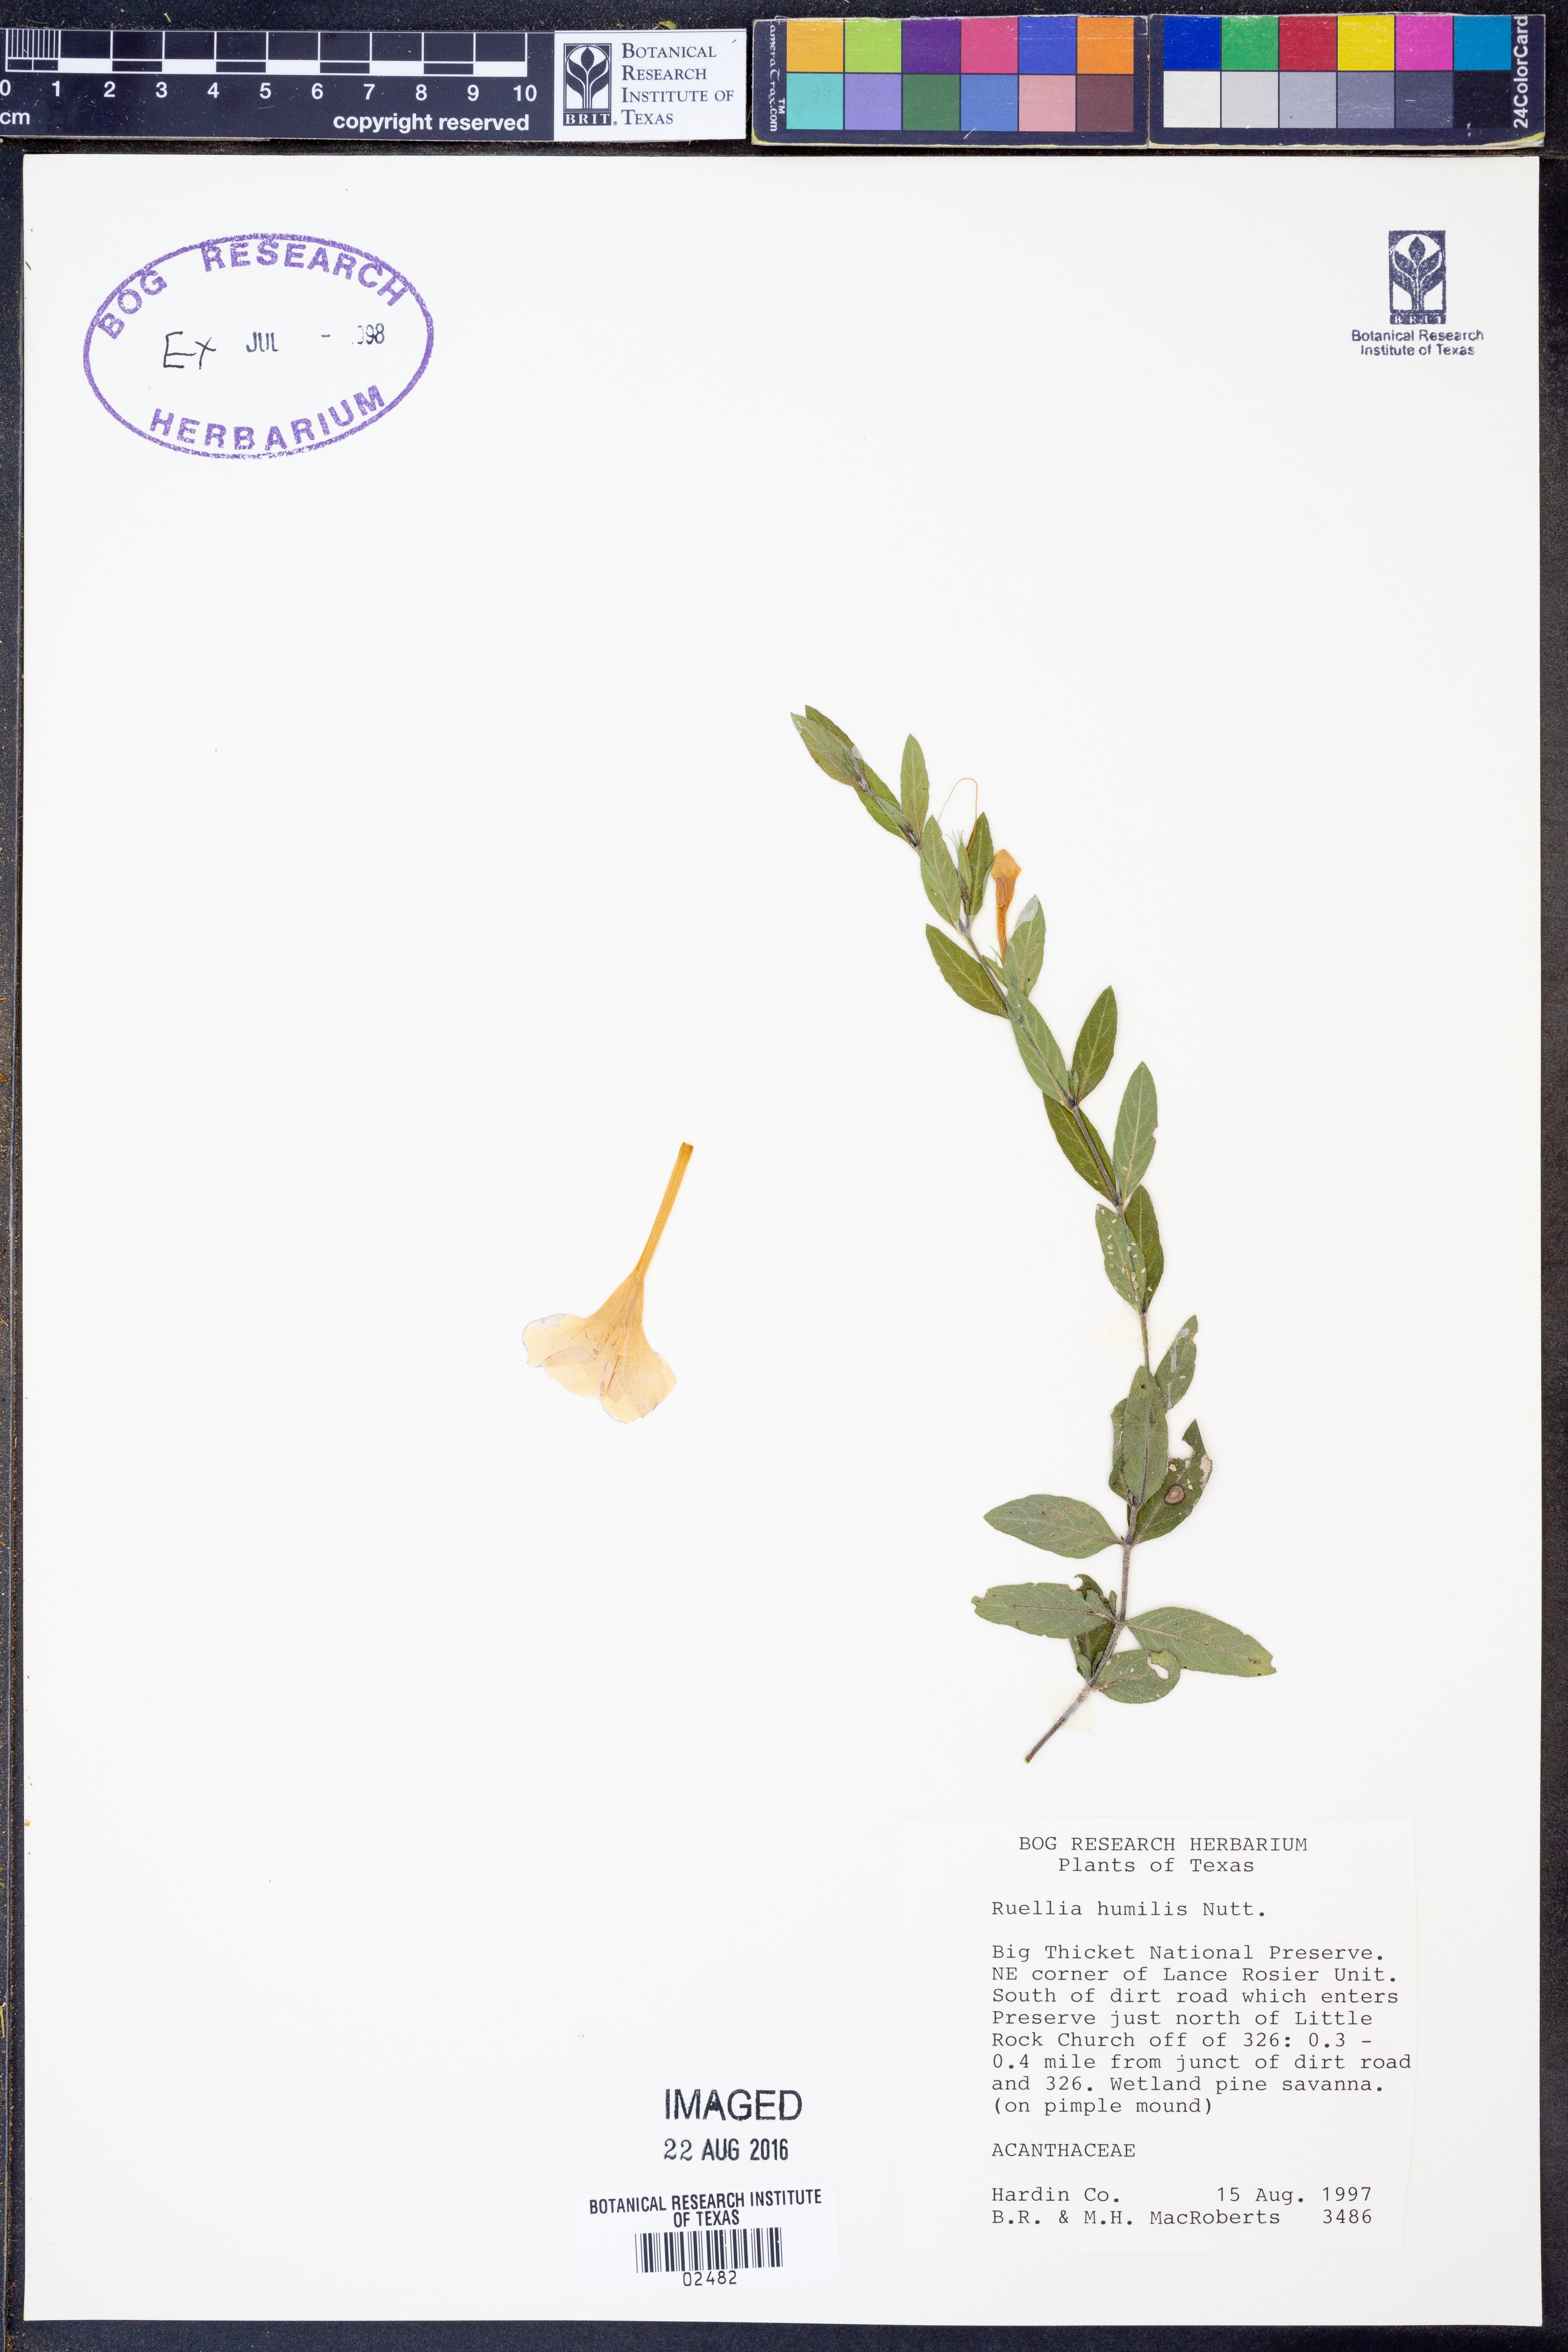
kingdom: Plantae
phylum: Tracheophyta
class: Magnoliopsida
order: Lamiales
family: Acanthaceae
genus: Ruellia
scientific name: Ruellia humilis
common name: Fringe-leaf ruellia
